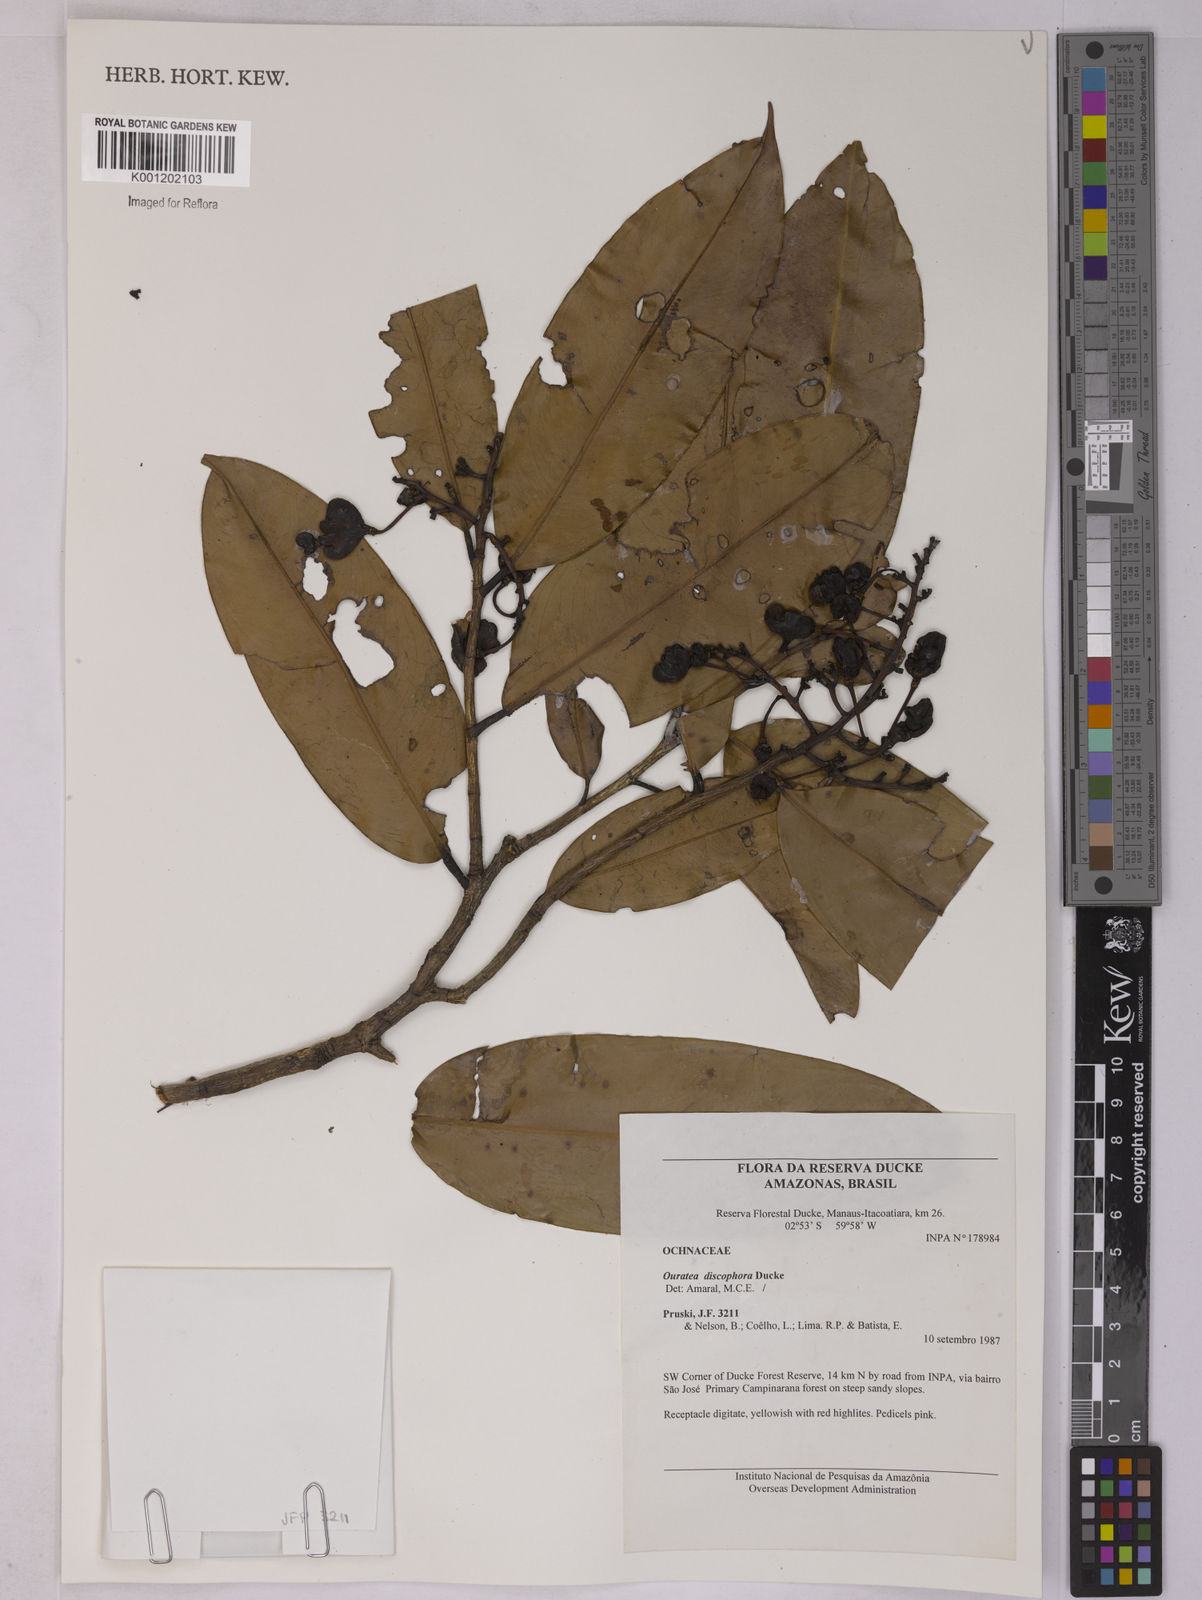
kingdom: Plantae
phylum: Tracheophyta
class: Magnoliopsida
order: Malpighiales
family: Ochnaceae
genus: Ouratea
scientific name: Ouratea discophora
